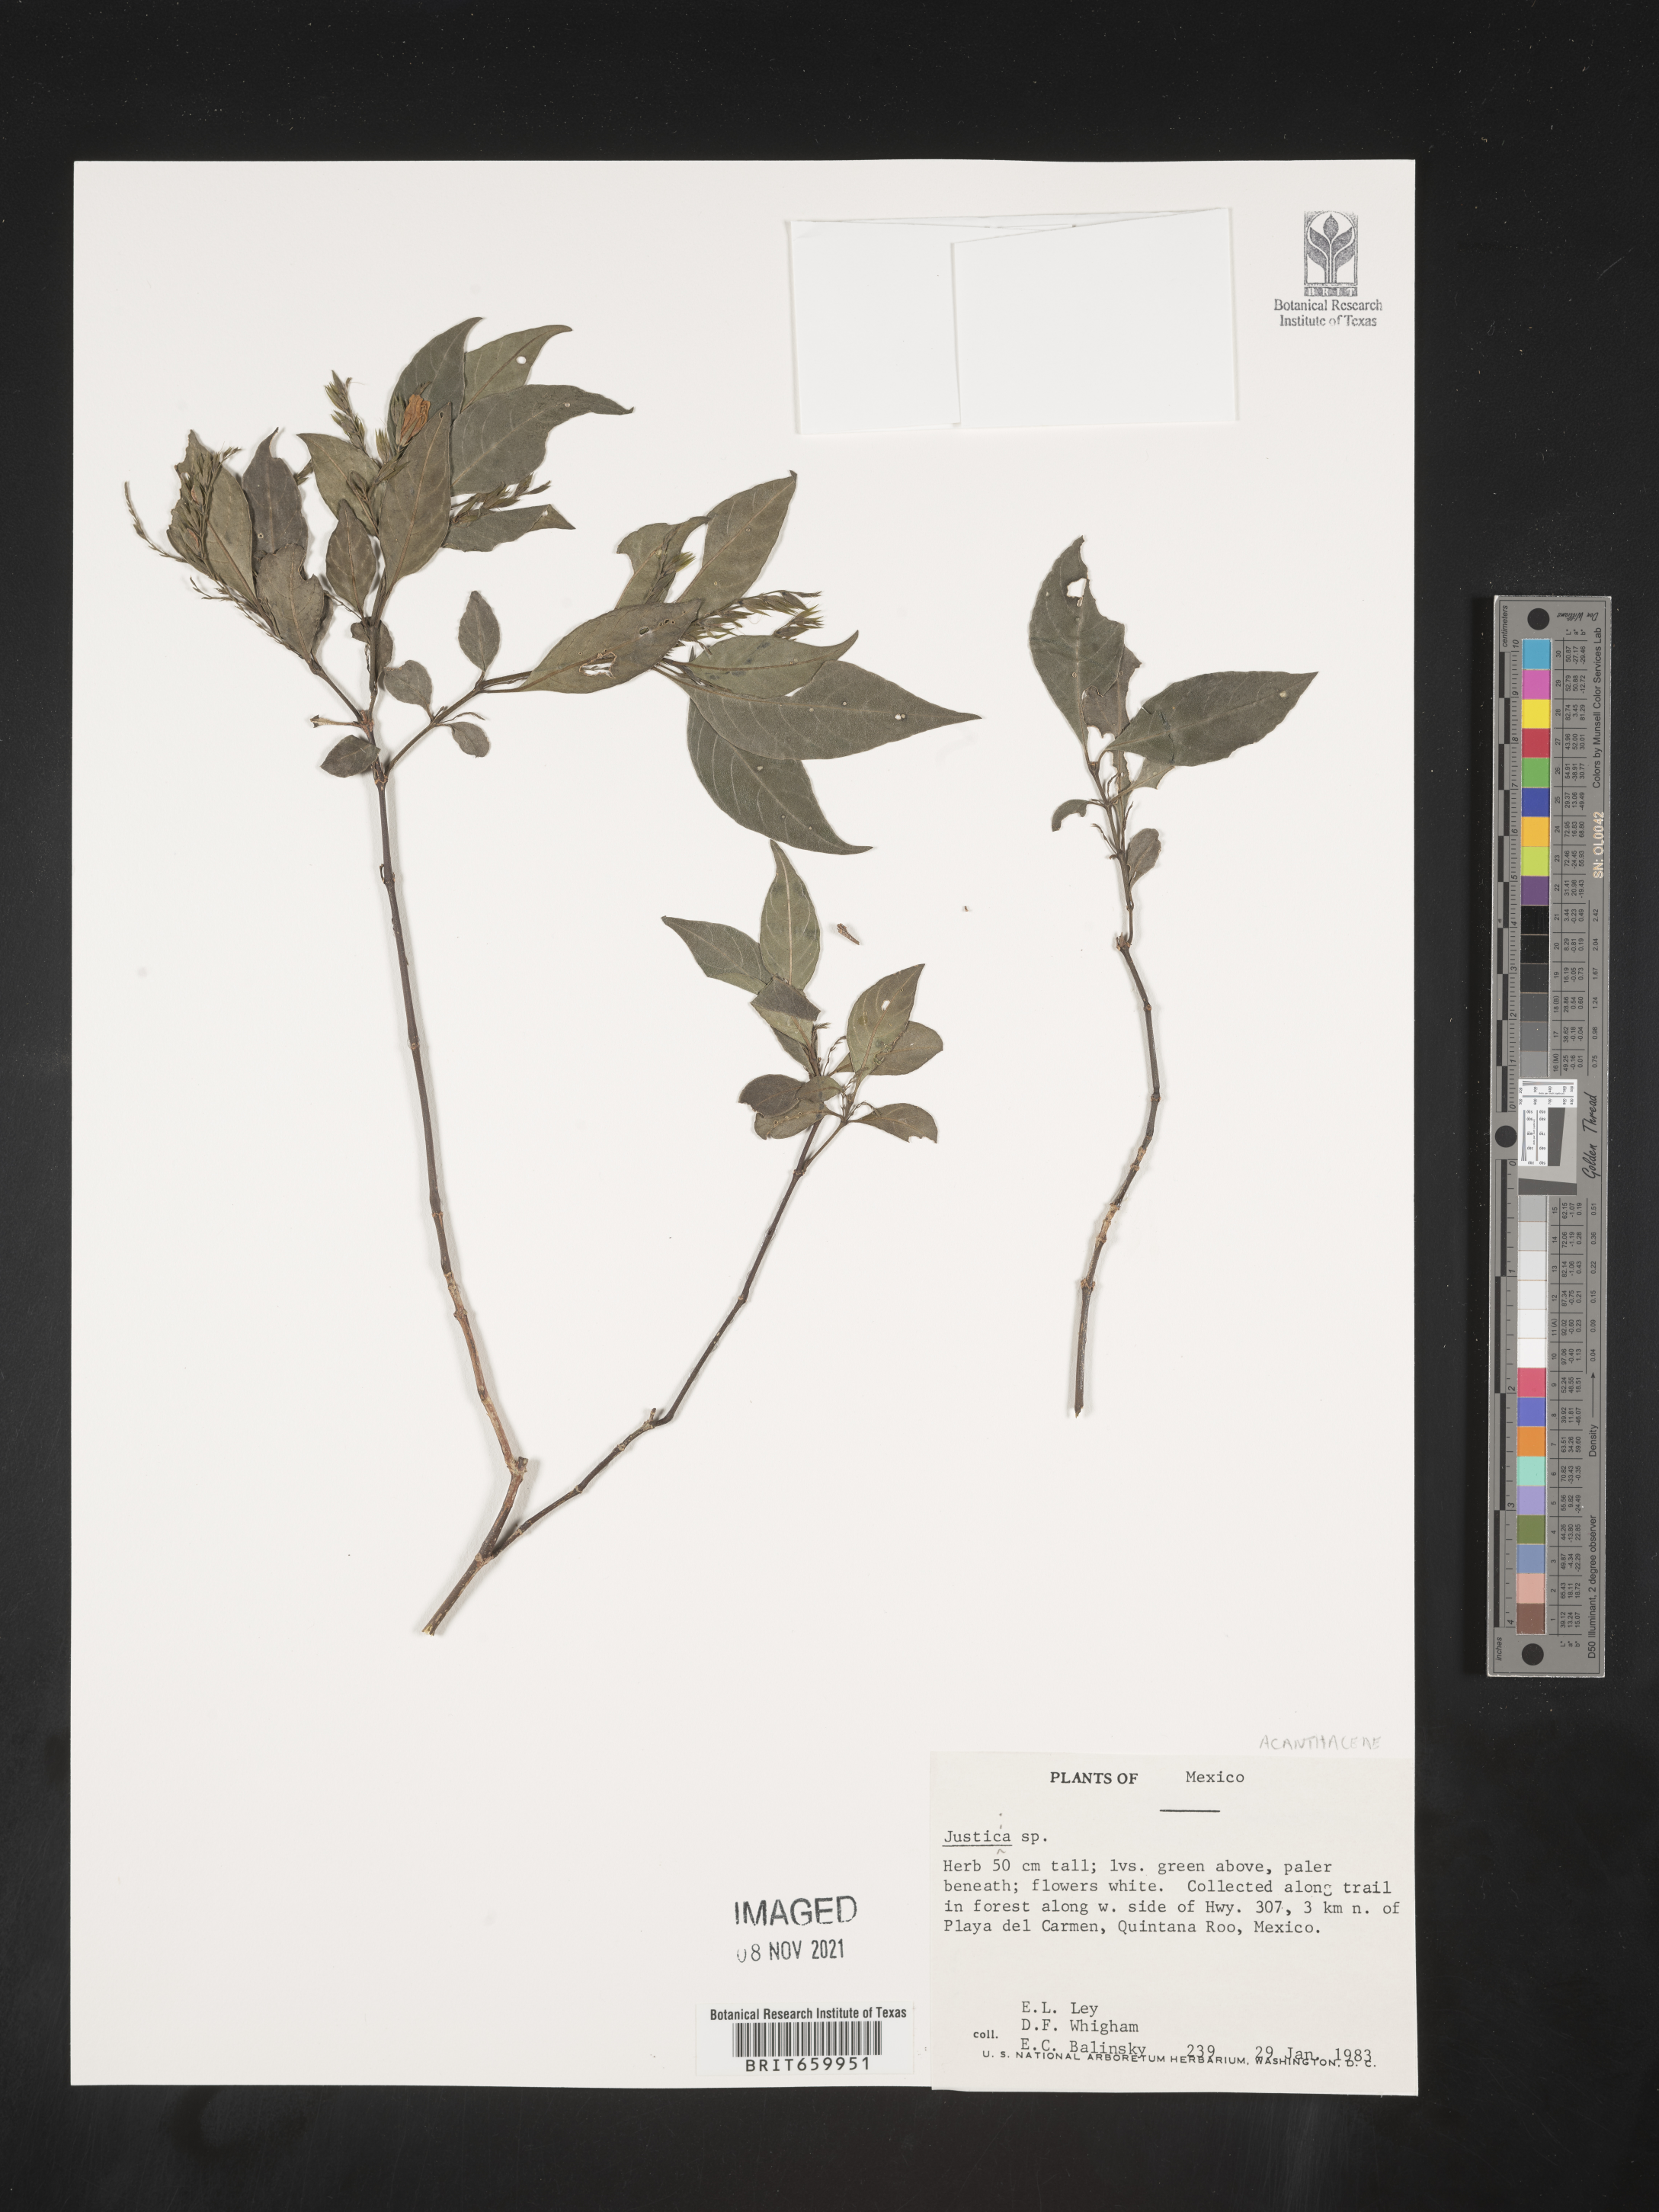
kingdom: Plantae
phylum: Tracheophyta
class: Magnoliopsida
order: Lamiales
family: Acanthaceae
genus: Justicia
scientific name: Justicia
